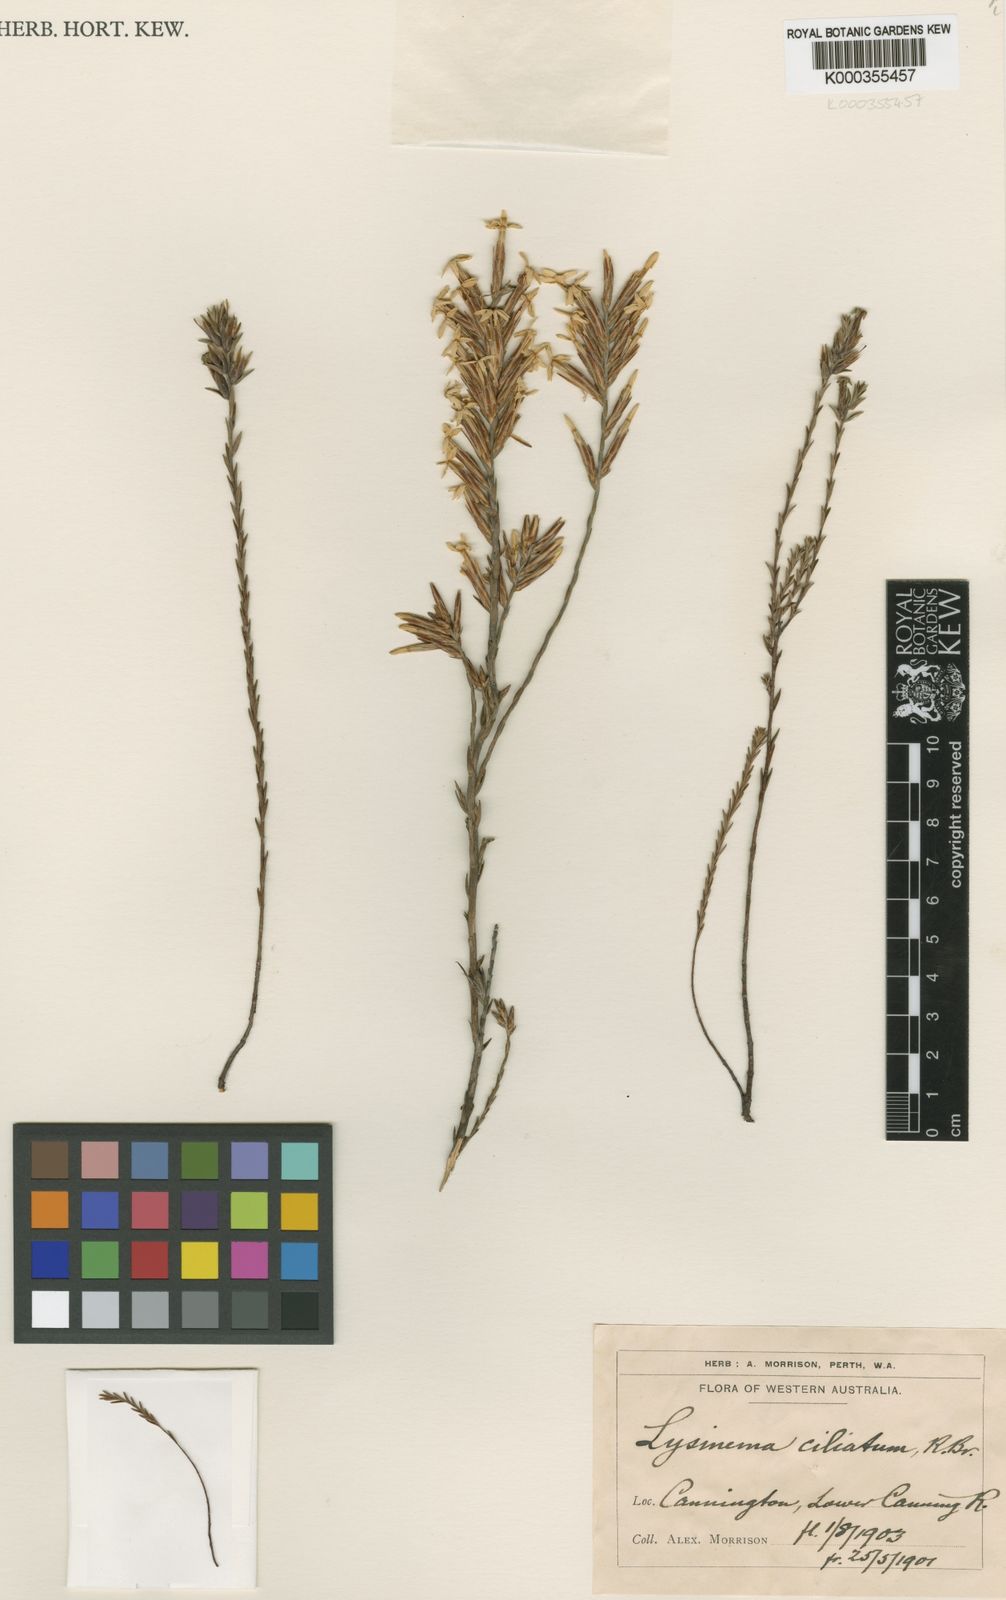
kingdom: Plantae
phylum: Tracheophyta
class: Magnoliopsida
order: Ericales
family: Ericaceae
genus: Lysinema
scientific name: Lysinema ciliatum
